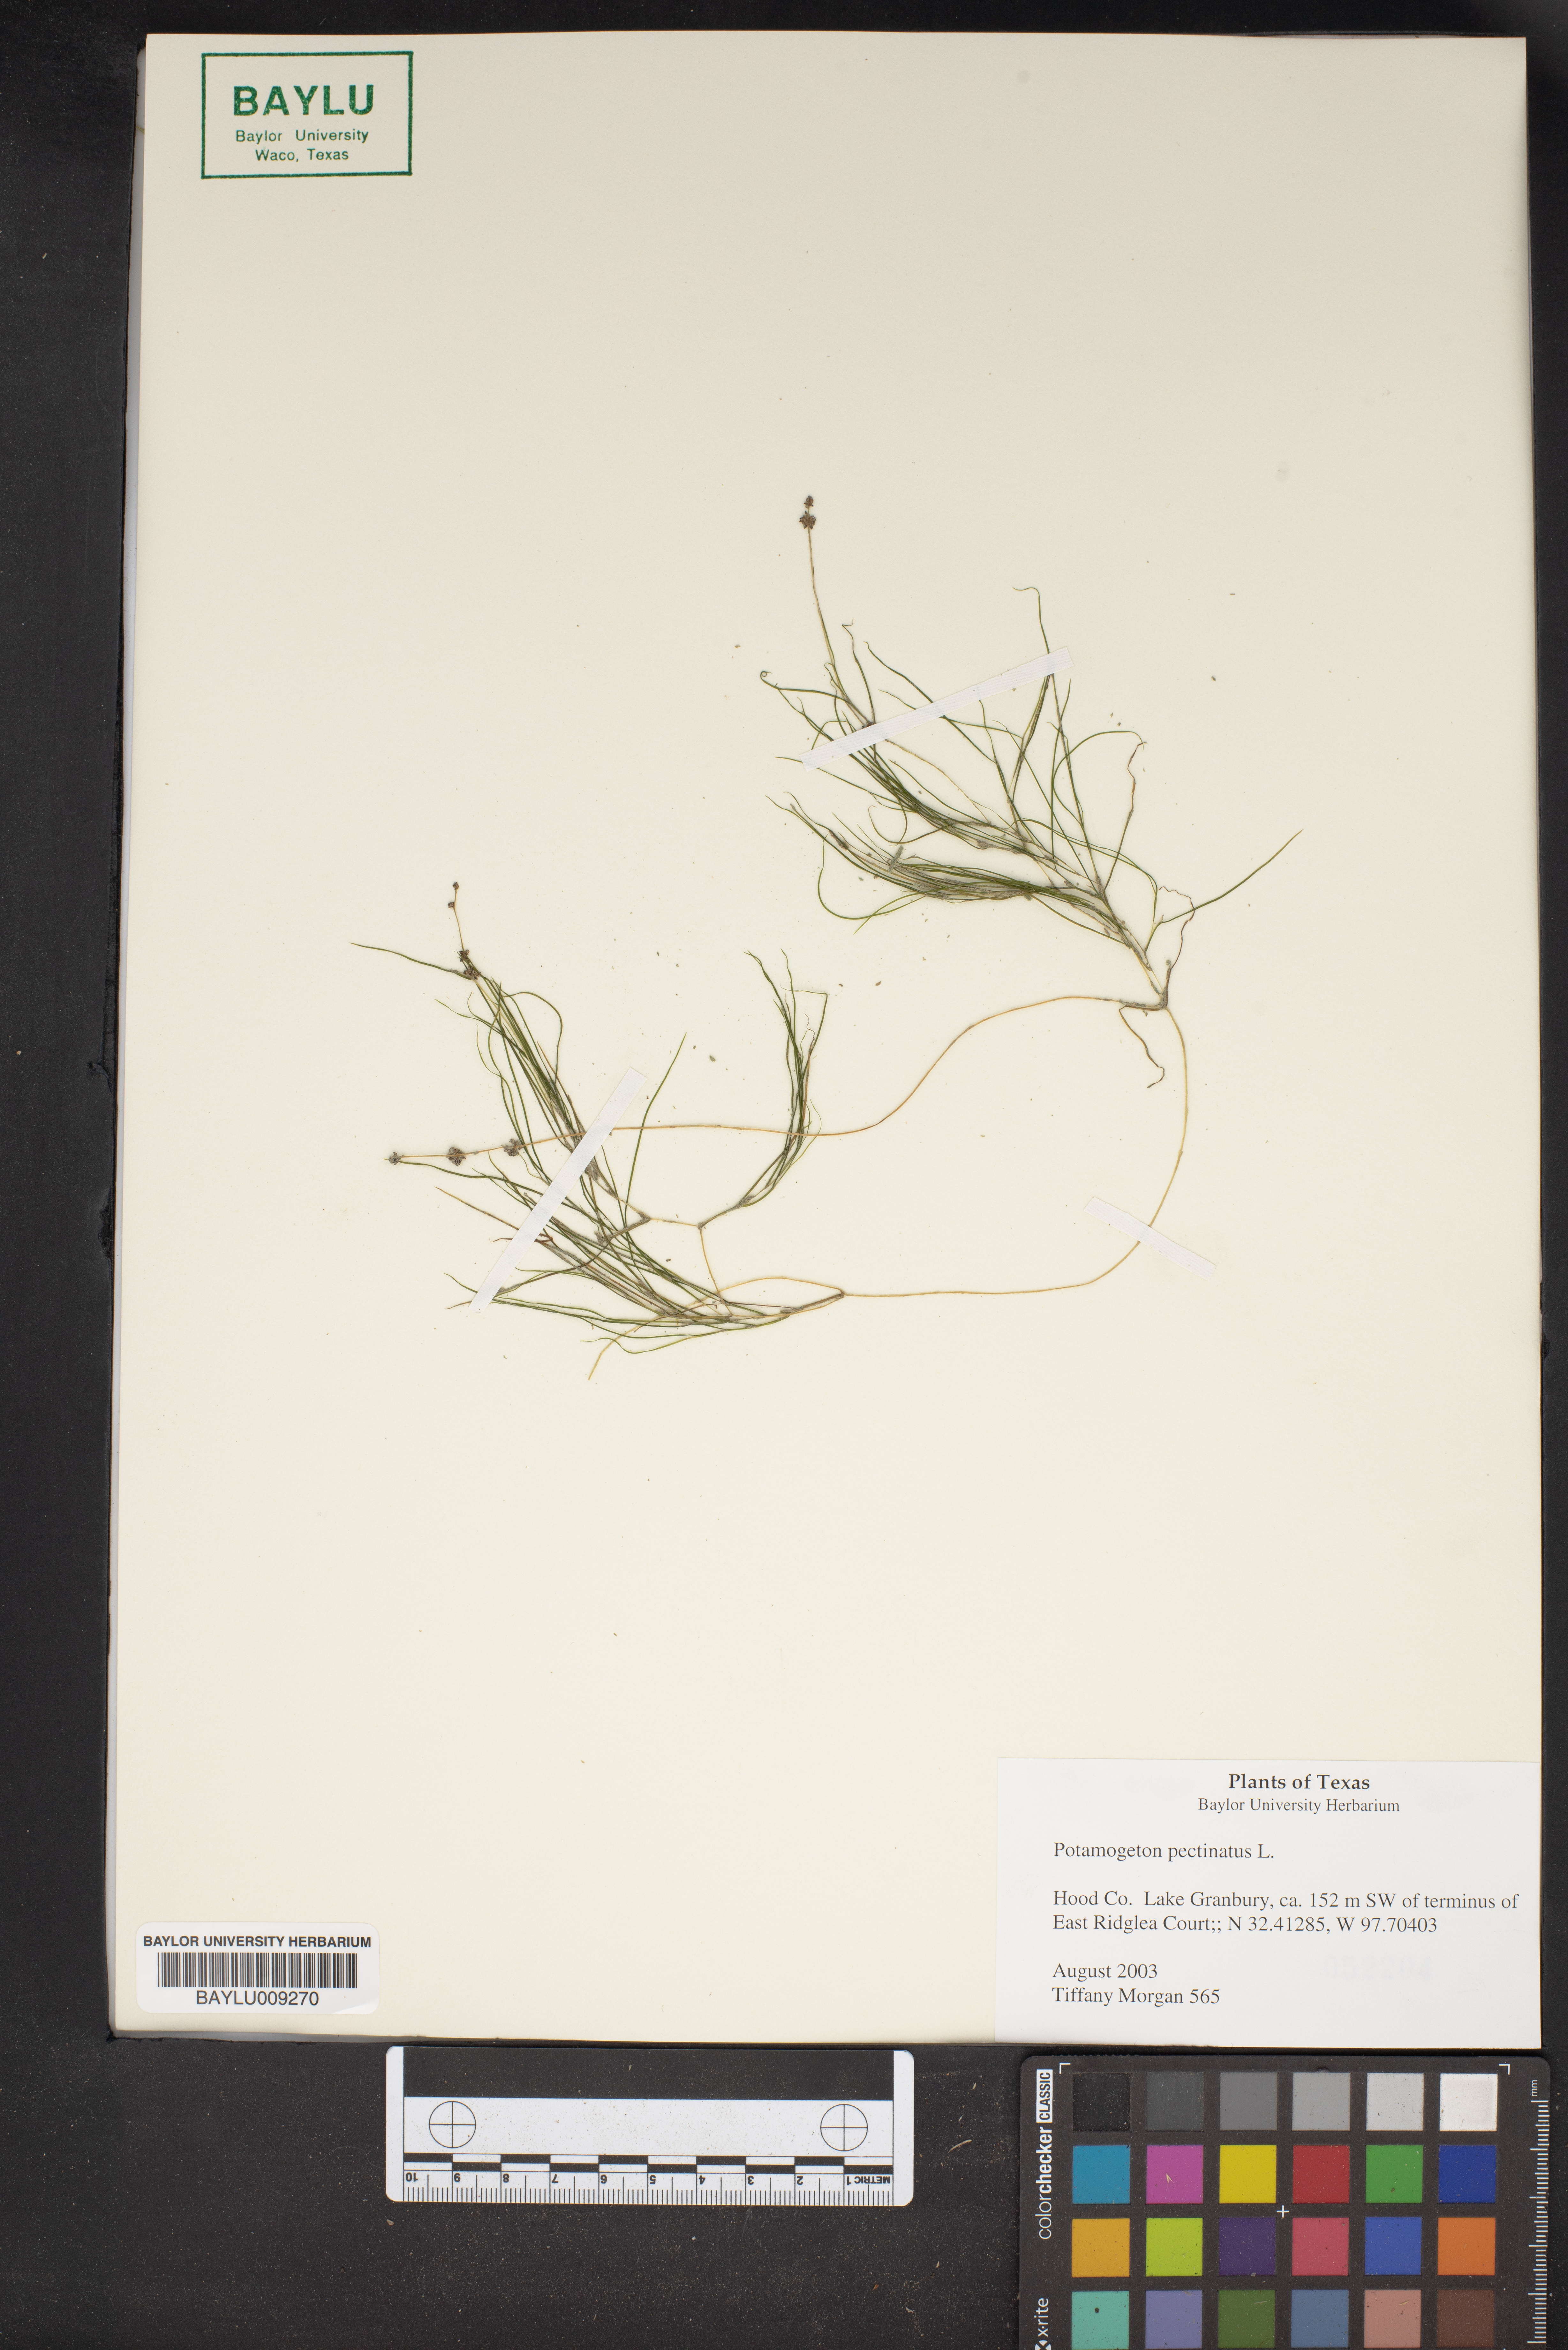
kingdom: Plantae
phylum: Tracheophyta
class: Liliopsida
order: Alismatales
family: Potamogetonaceae
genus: Stuckenia
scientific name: Stuckenia pectinata
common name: Sago pondweed
